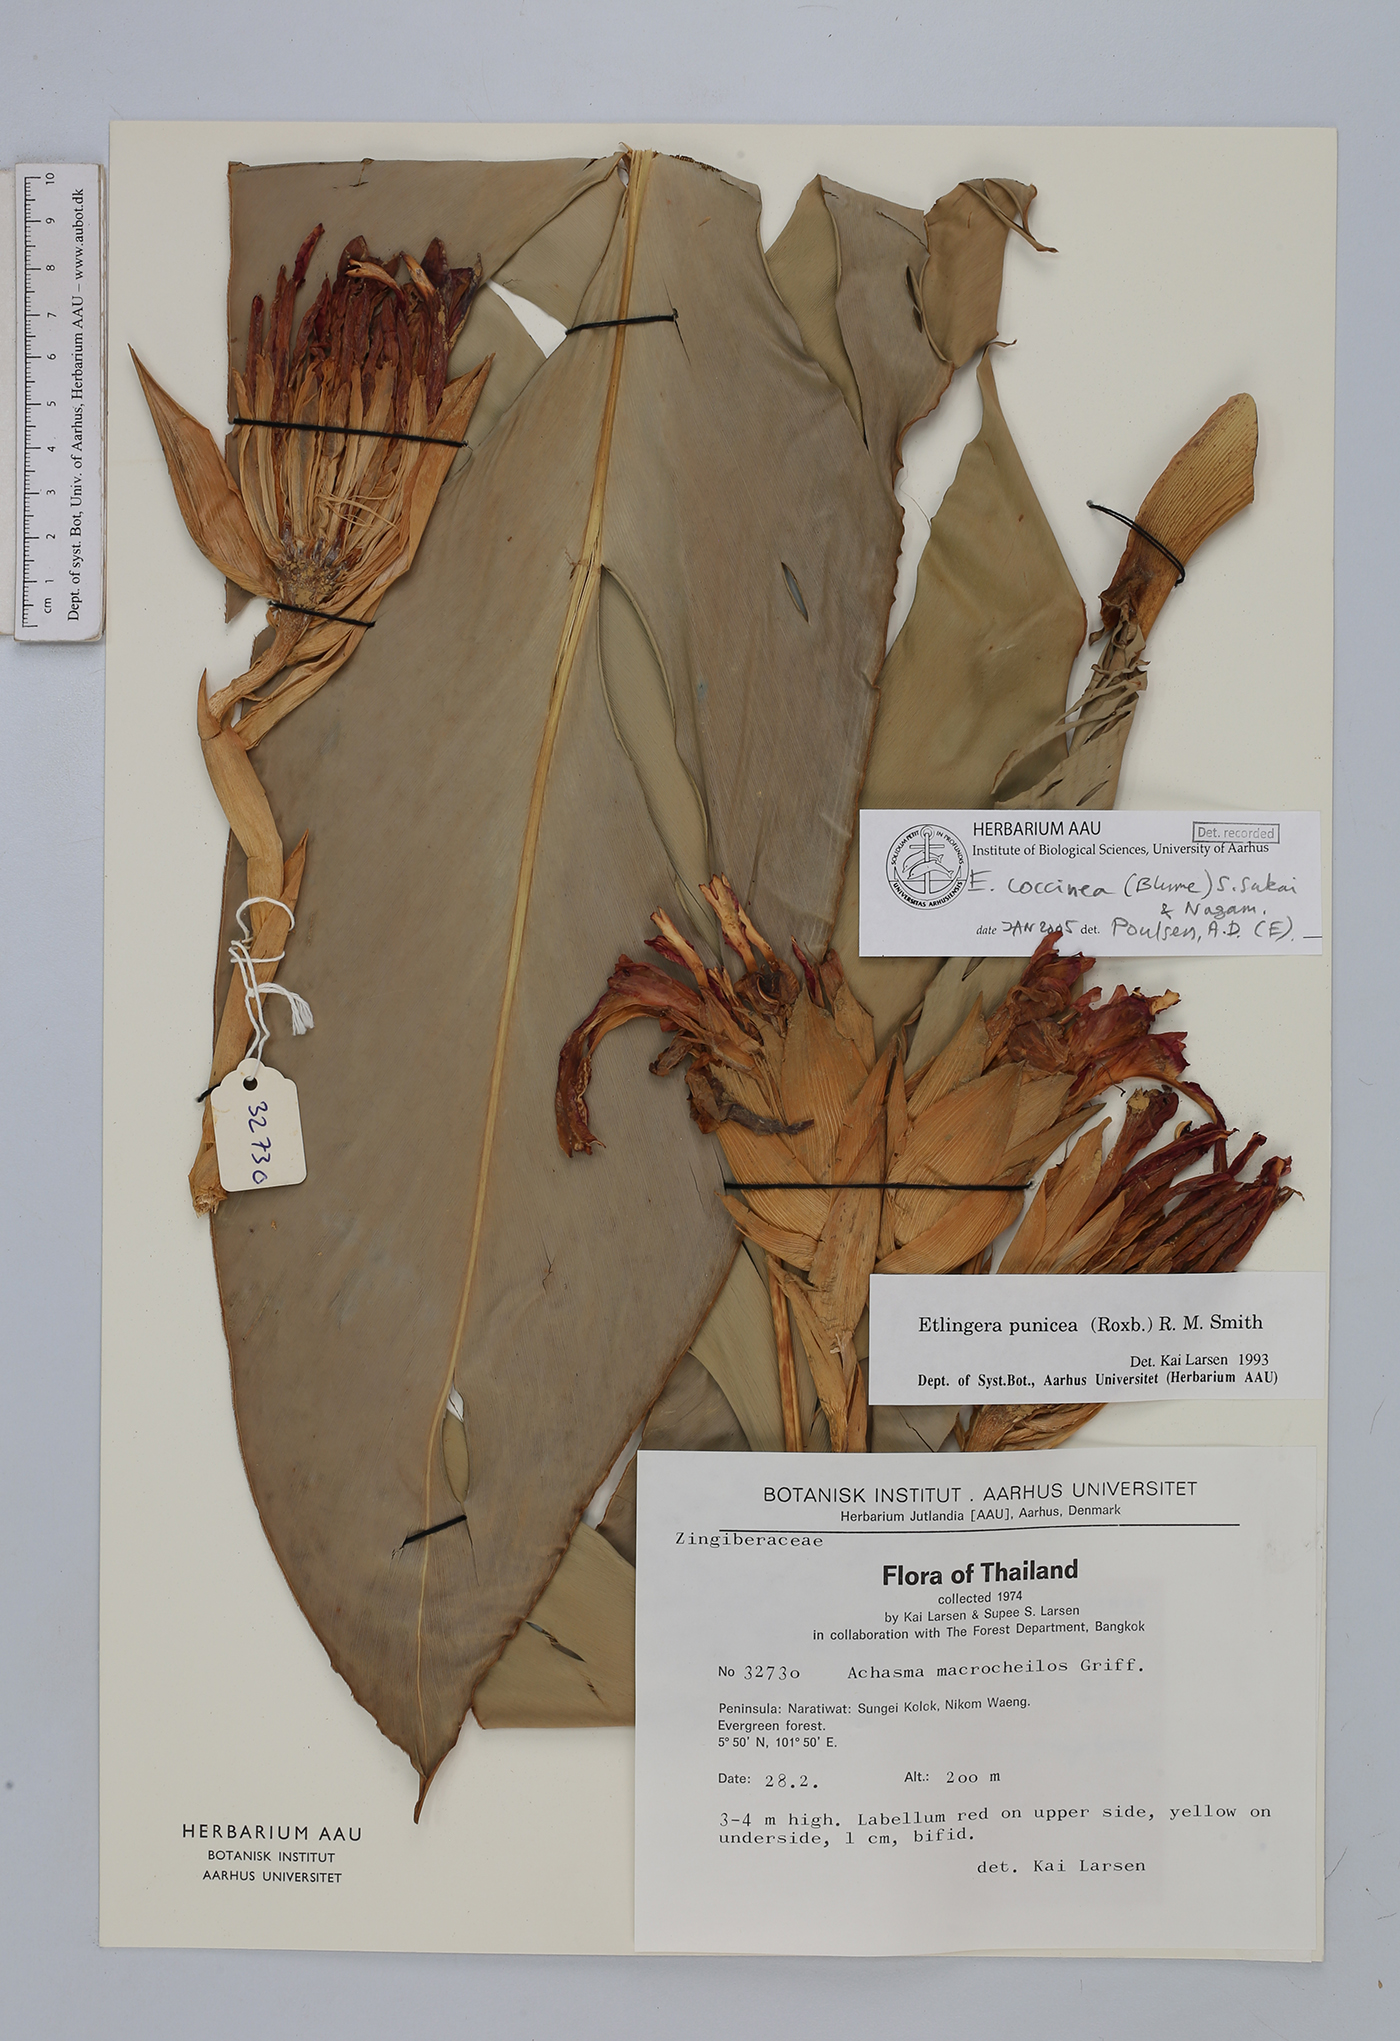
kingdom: Plantae
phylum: Tracheophyta
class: Liliopsida
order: Zingiberales
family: Zingiberaceae
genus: Etlingera
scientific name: Etlingera coccinea
